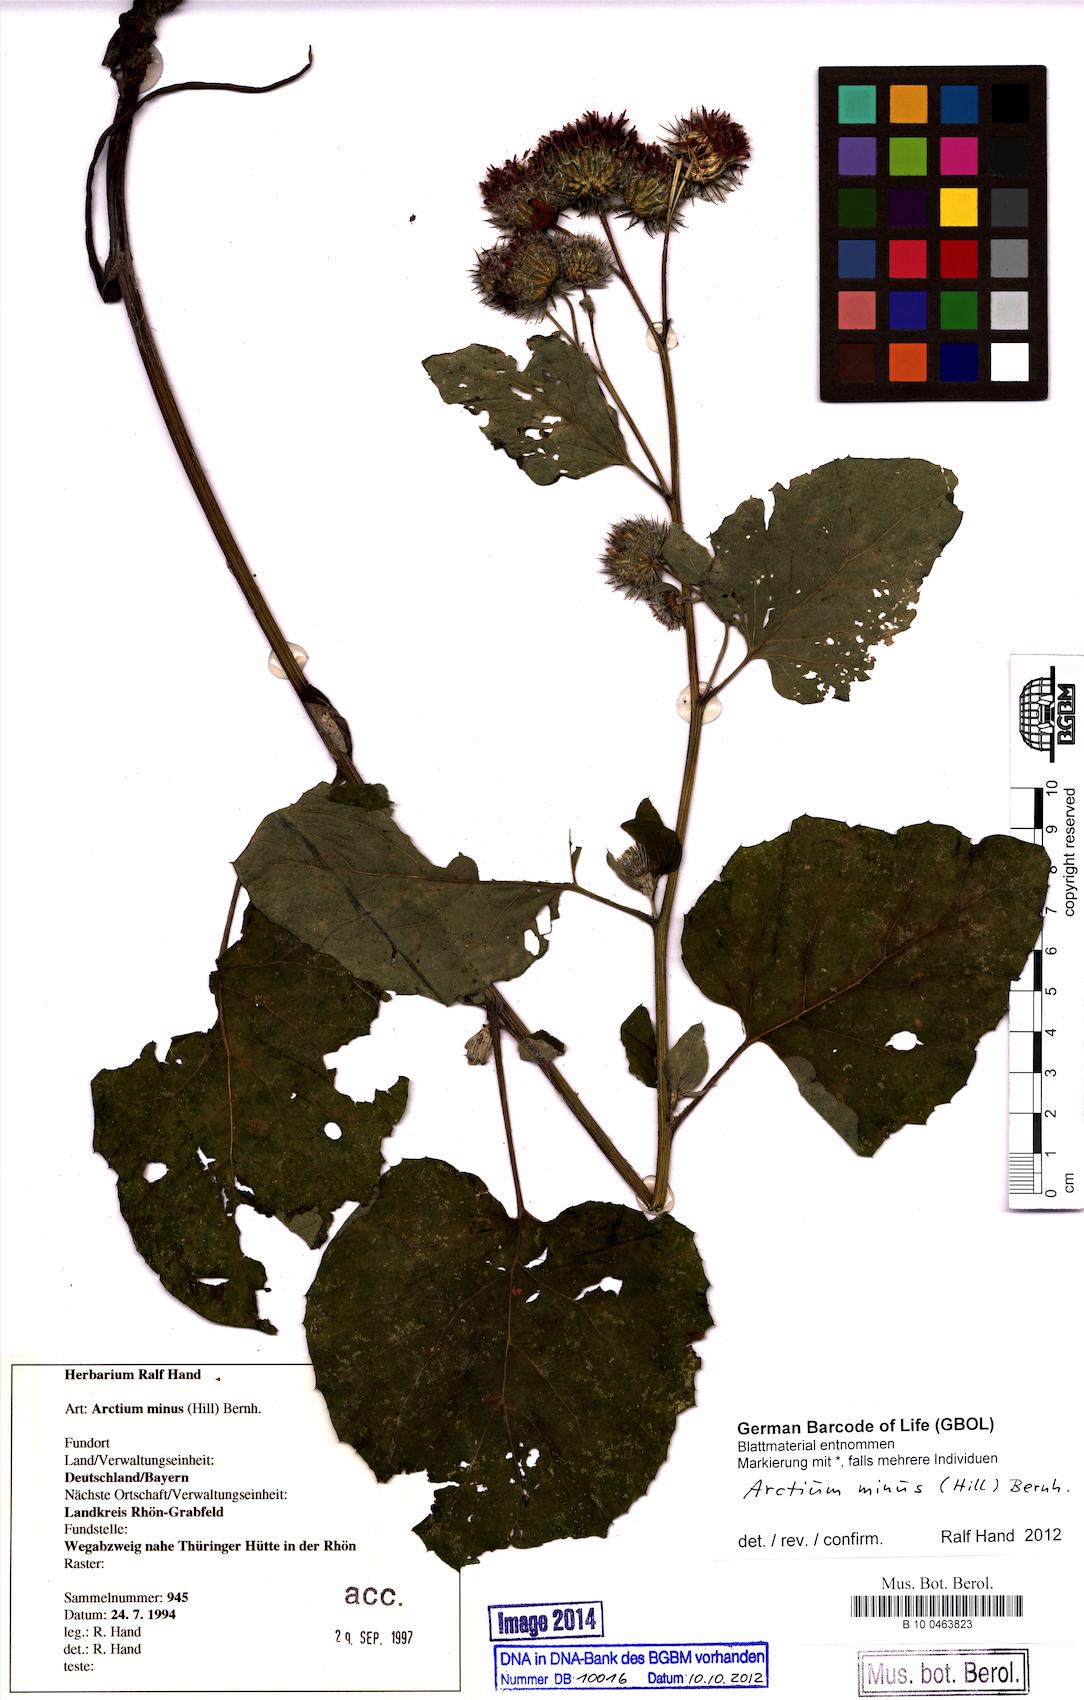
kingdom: Plantae
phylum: Tracheophyta
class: Magnoliopsida
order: Asterales
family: Asteraceae
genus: Arctium
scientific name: Arctium minus
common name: Lesser burdock
